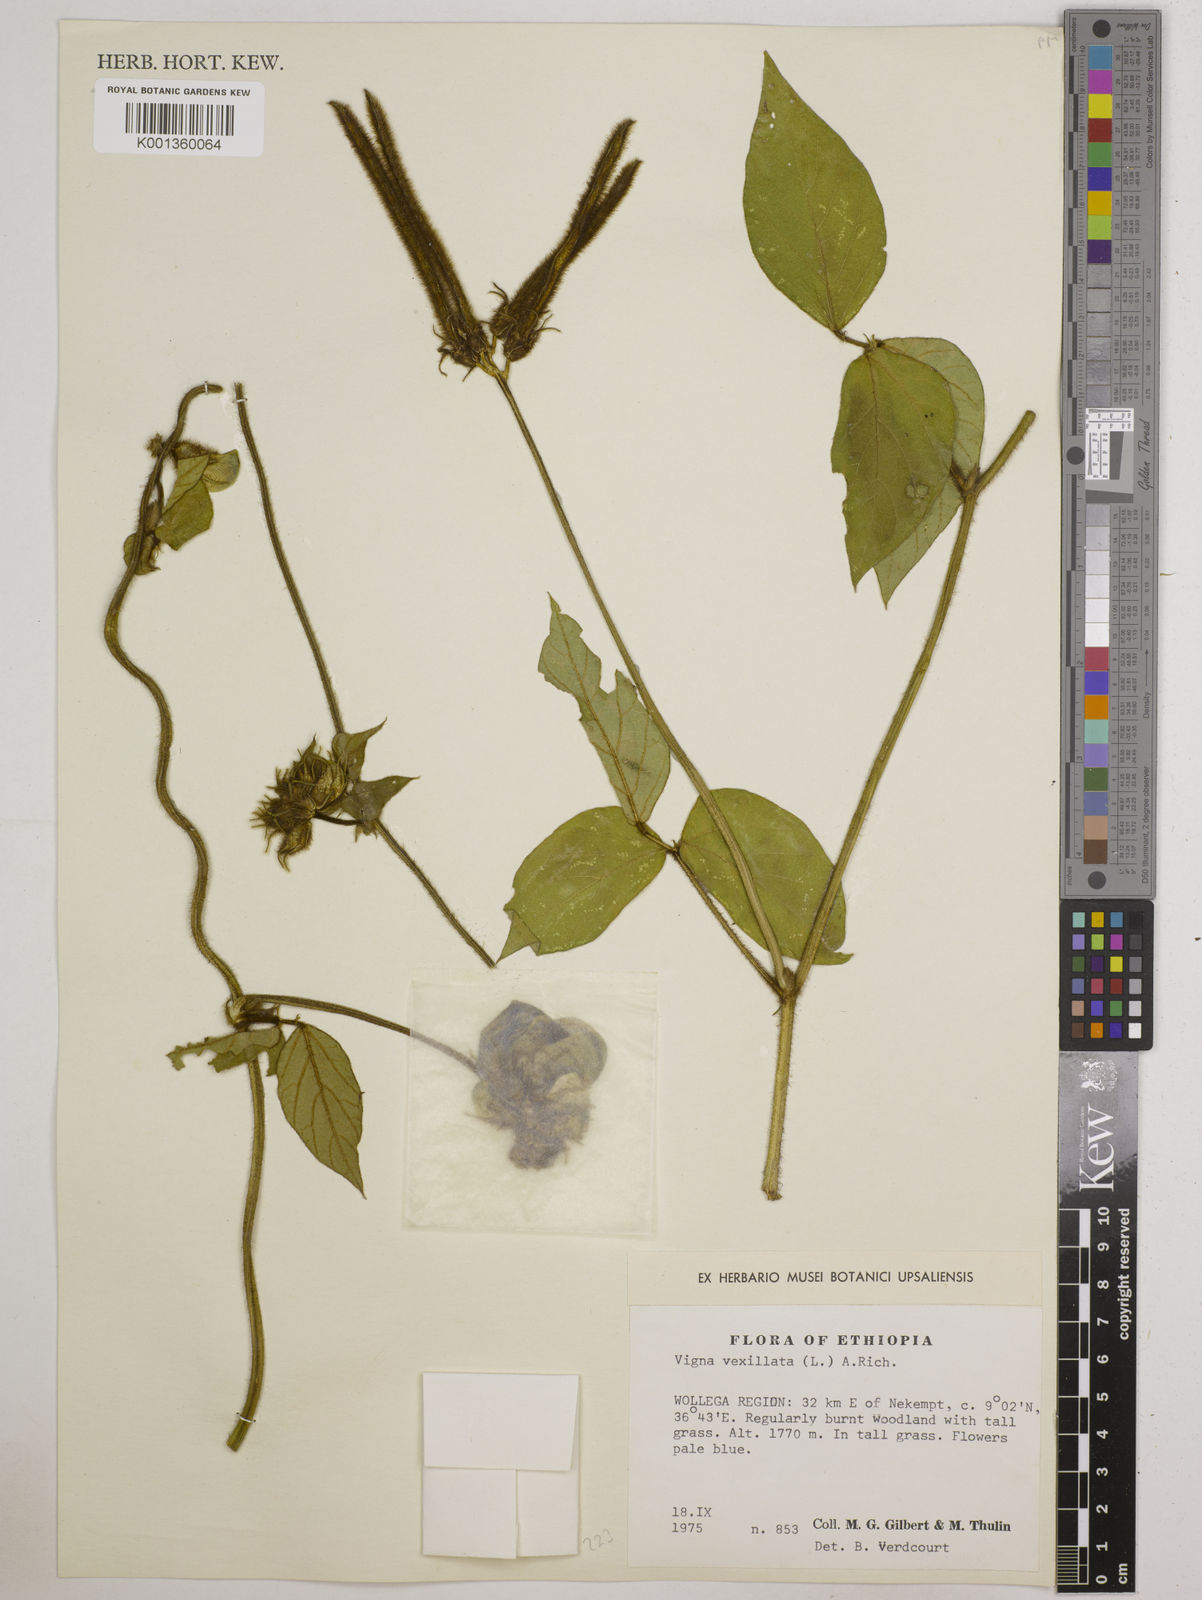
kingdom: Plantae
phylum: Tracheophyta
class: Magnoliopsida
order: Fabales
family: Fabaceae
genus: Vigna
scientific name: Vigna vexillata
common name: Zombi pea
